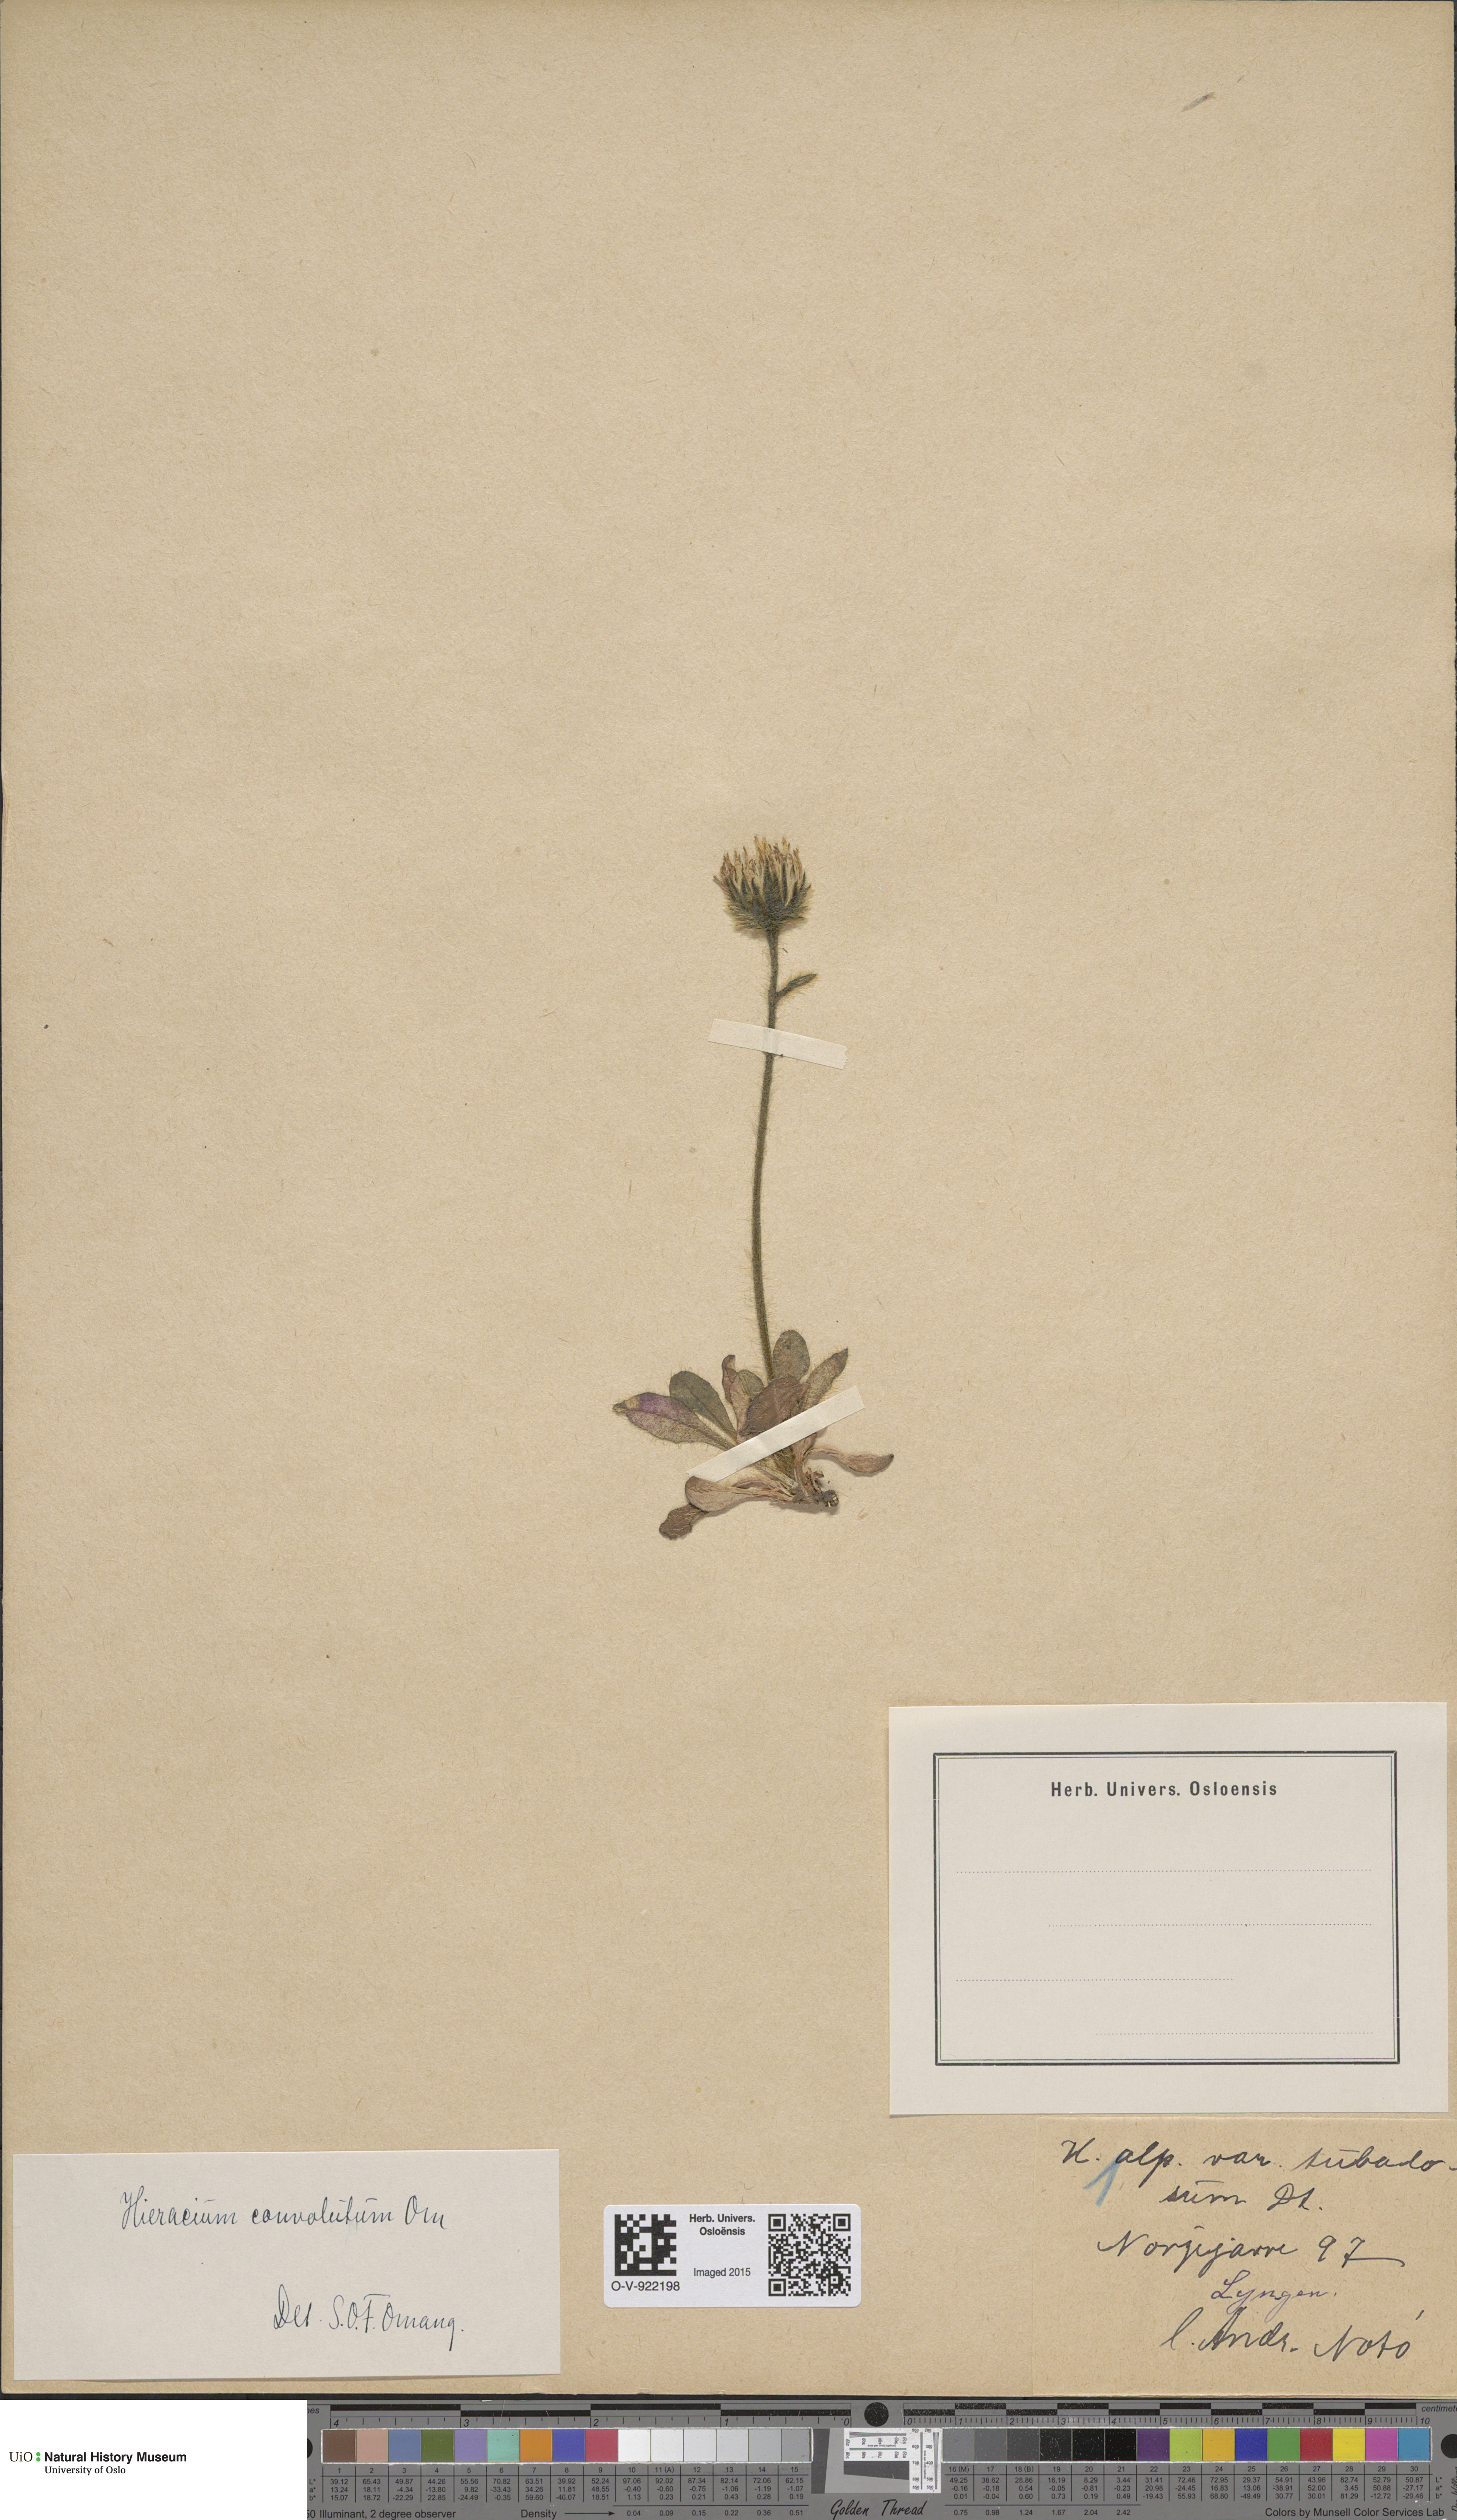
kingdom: Plantae
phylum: Tracheophyta
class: Magnoliopsida
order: Asterales
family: Asteraceae
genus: Hieracium
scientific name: Hieracium alpinum
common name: Alpine hawkweed
